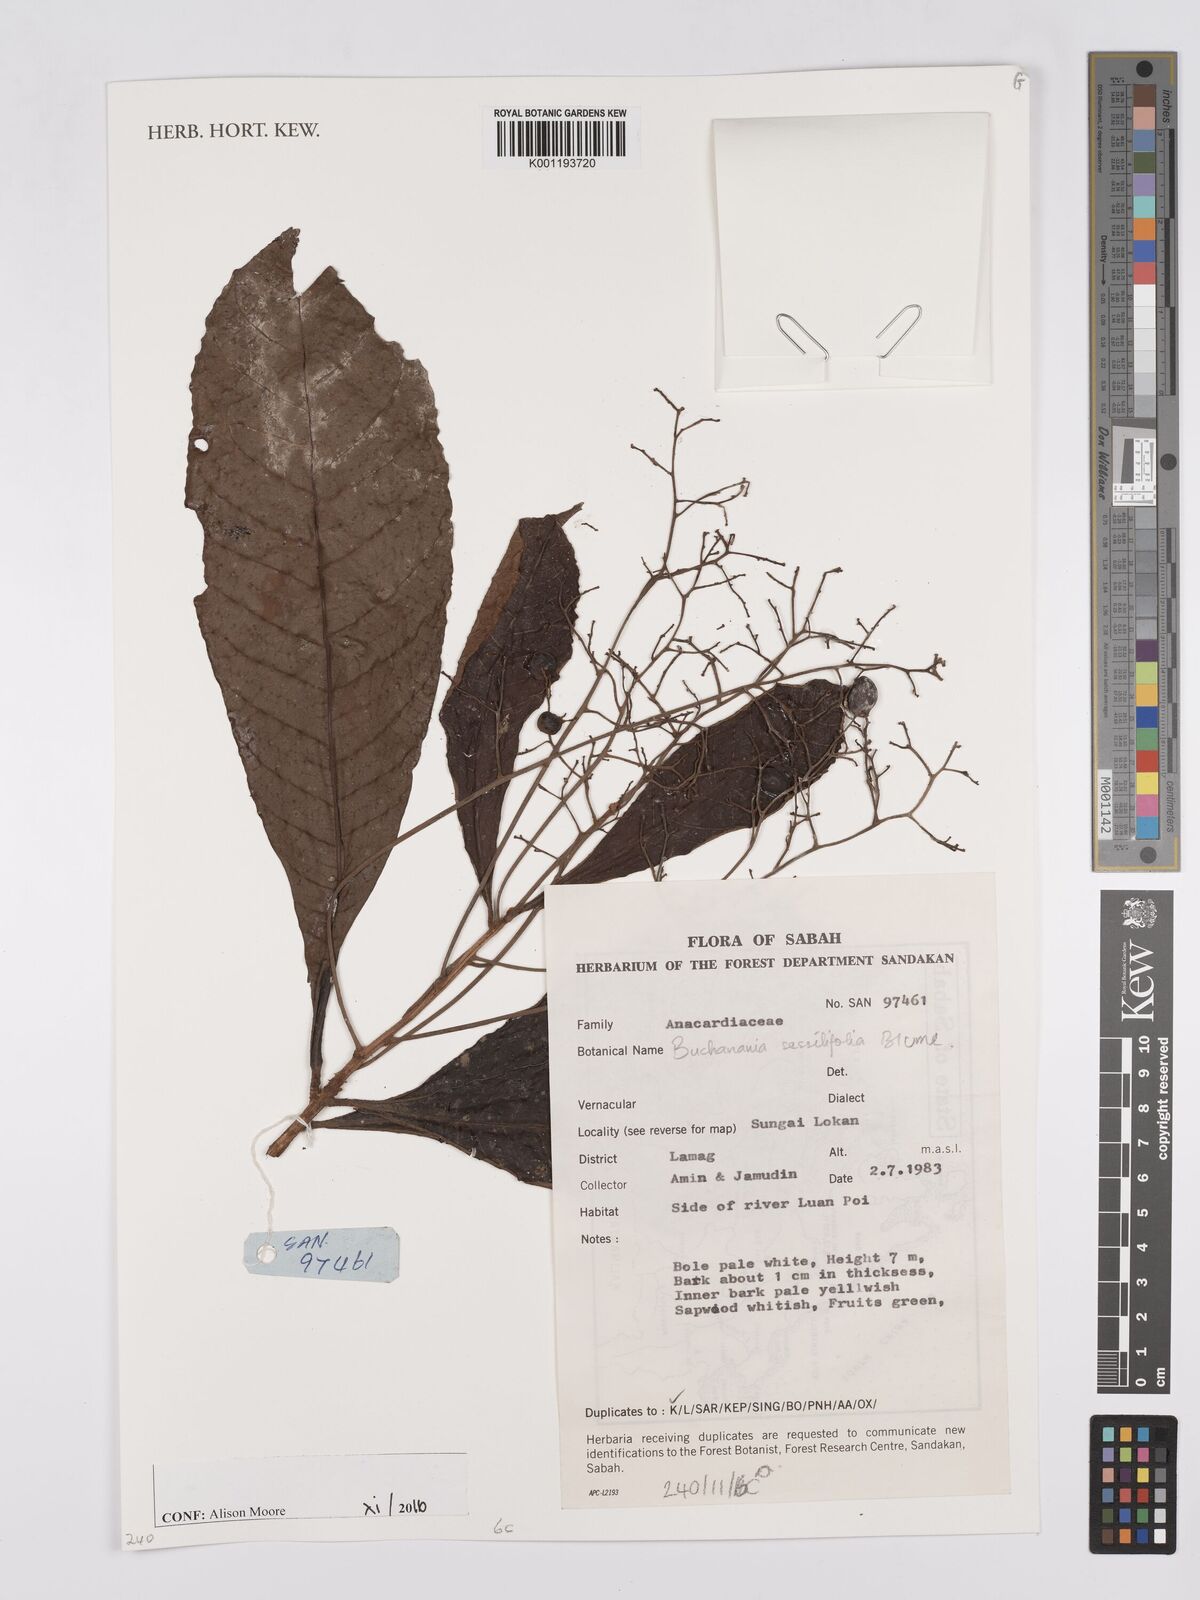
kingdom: Plantae
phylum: Tracheophyta
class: Magnoliopsida
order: Sapindales
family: Anacardiaceae
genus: Buchanania
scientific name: Buchanania sessifolia
